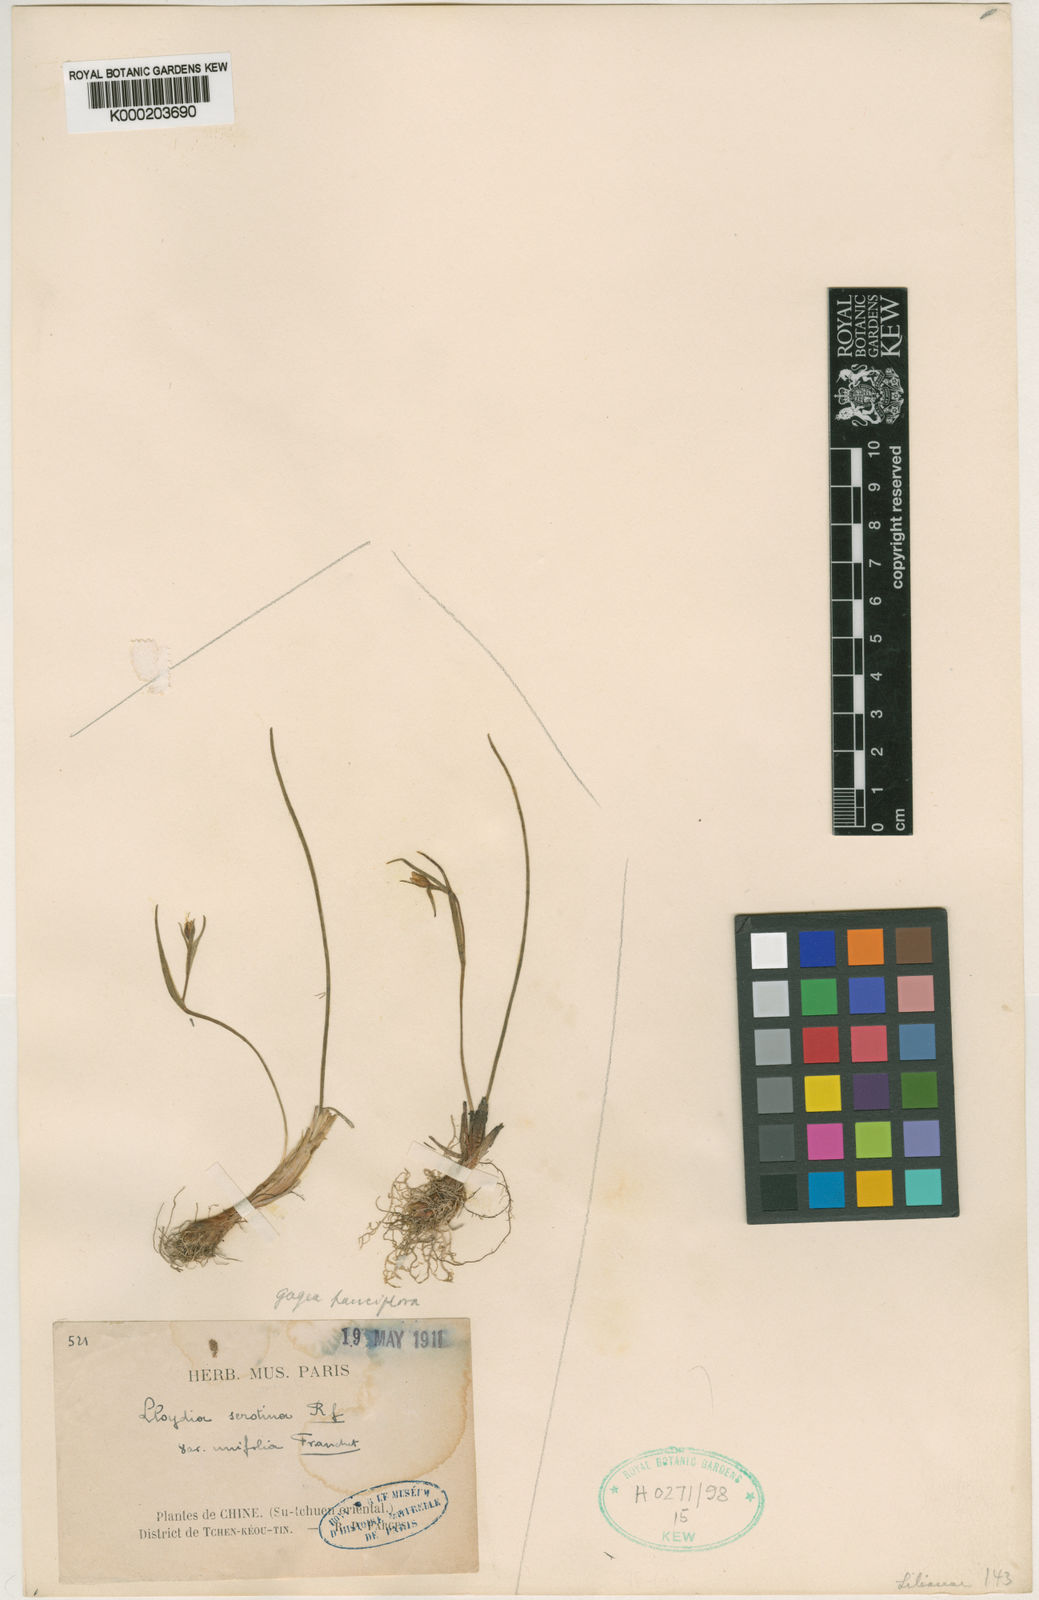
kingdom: Plantae
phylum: Tracheophyta
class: Liliopsida
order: Liliales
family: Liliaceae
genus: Gagea
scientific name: Gagea serotina
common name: Snowdon lily
